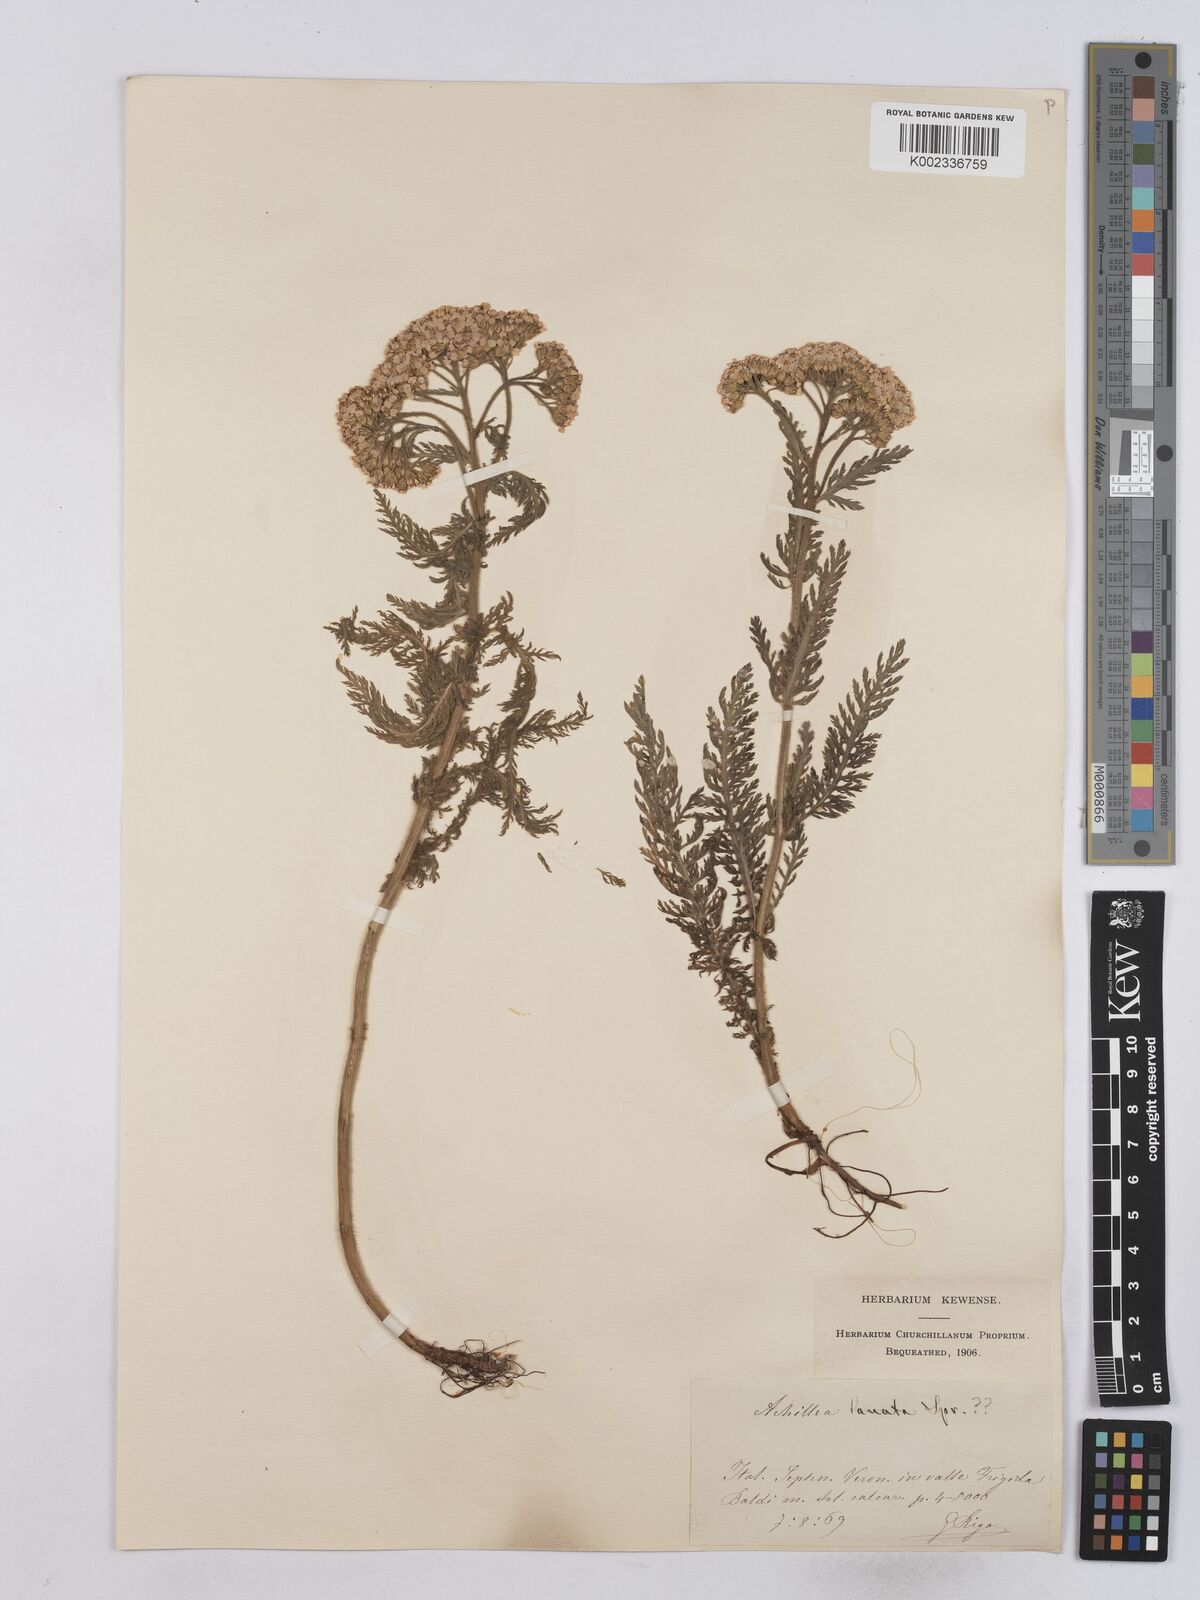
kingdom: Plantae
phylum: Tracheophyta
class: Magnoliopsida
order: Asterales
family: Asteraceae
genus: Achillea
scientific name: Achillea setacea
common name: Bristly yarrow
